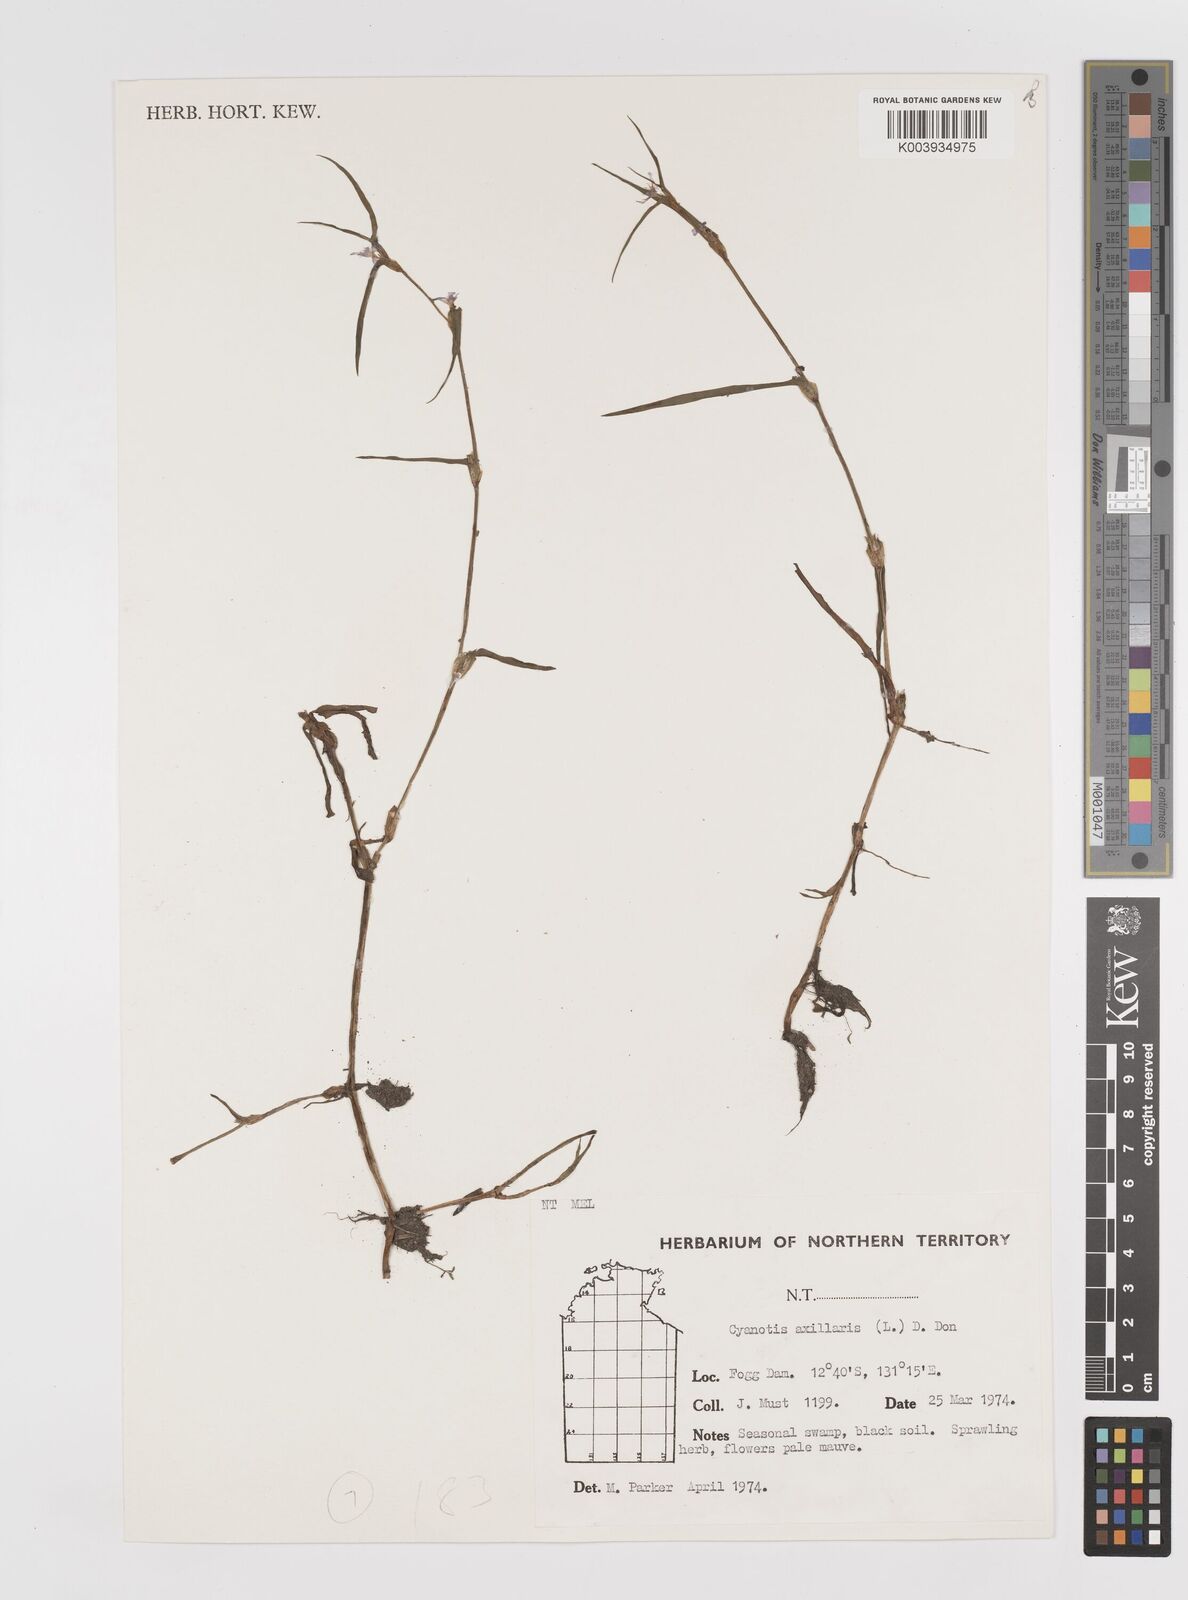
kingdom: Plantae
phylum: Tracheophyta
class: Liliopsida
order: Commelinales
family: Commelinaceae
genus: Cyanotis
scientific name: Cyanotis axillaris
